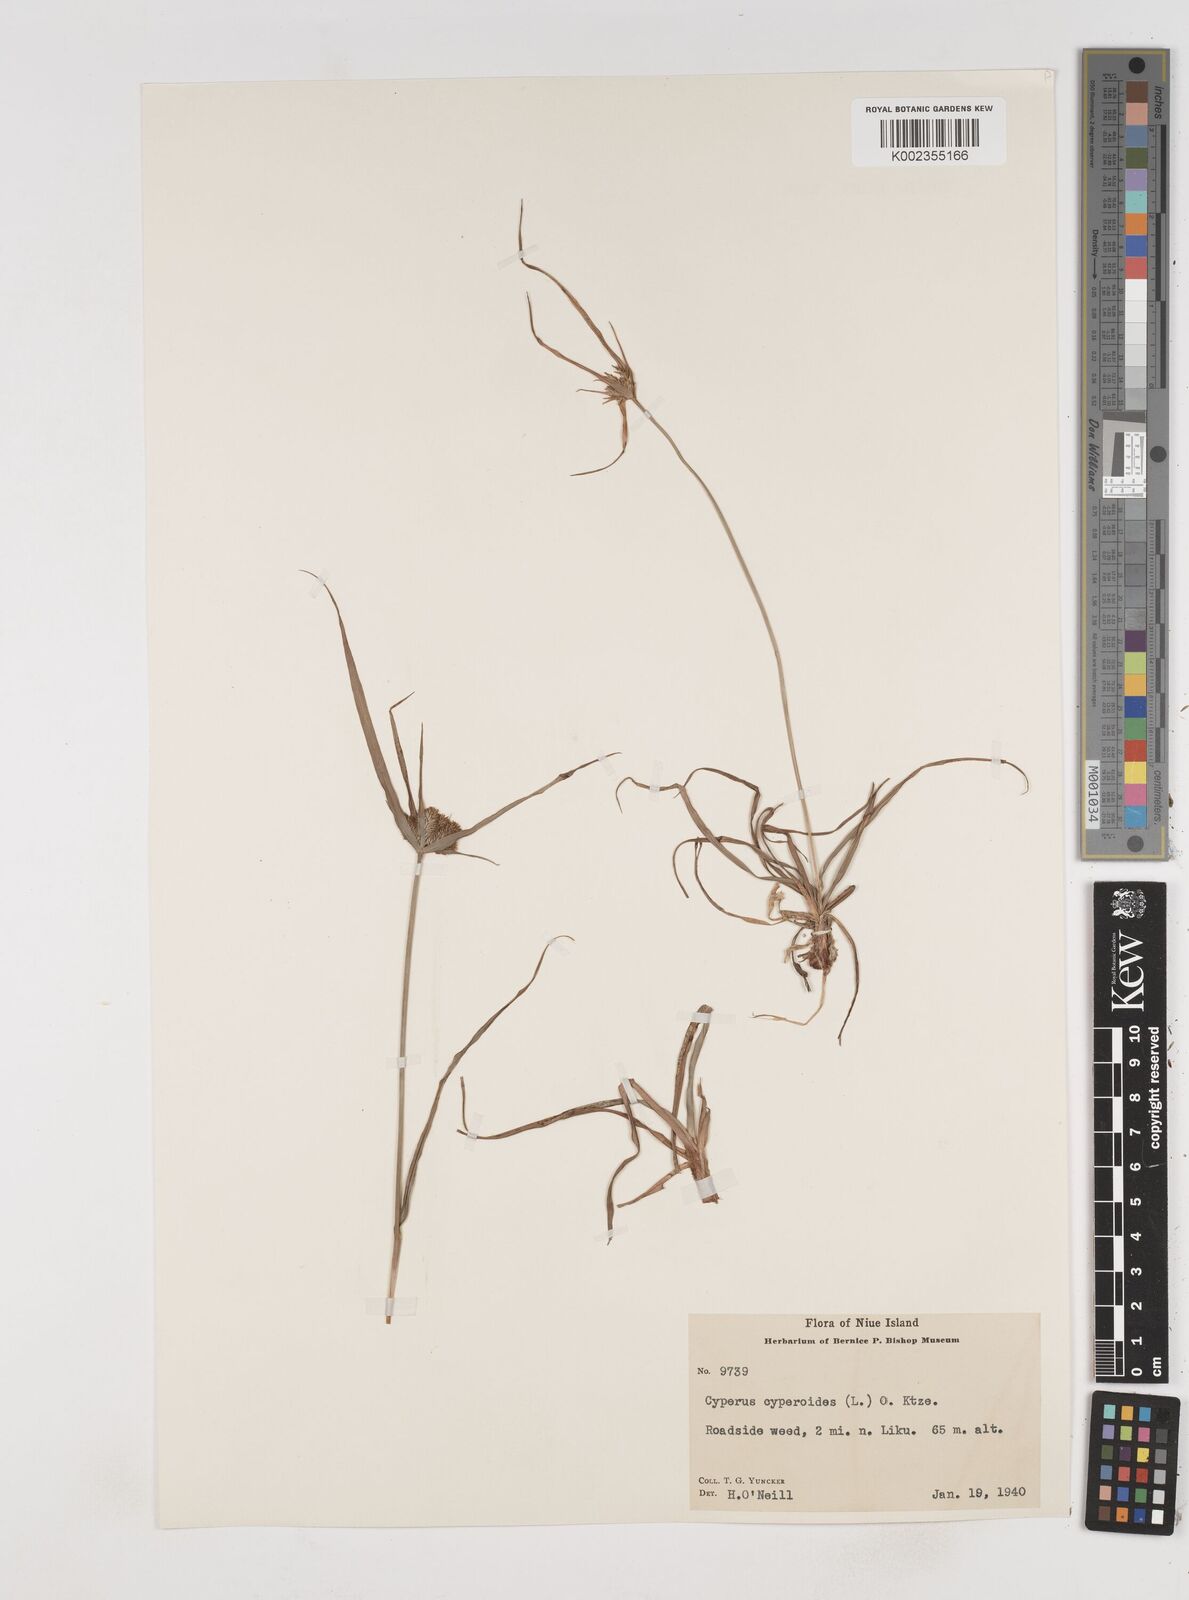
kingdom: Plantae
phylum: Tracheophyta
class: Liliopsida
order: Poales
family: Cyperaceae
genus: Cyperus
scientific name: Cyperus cyperoides
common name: Pacific island flat sedge
